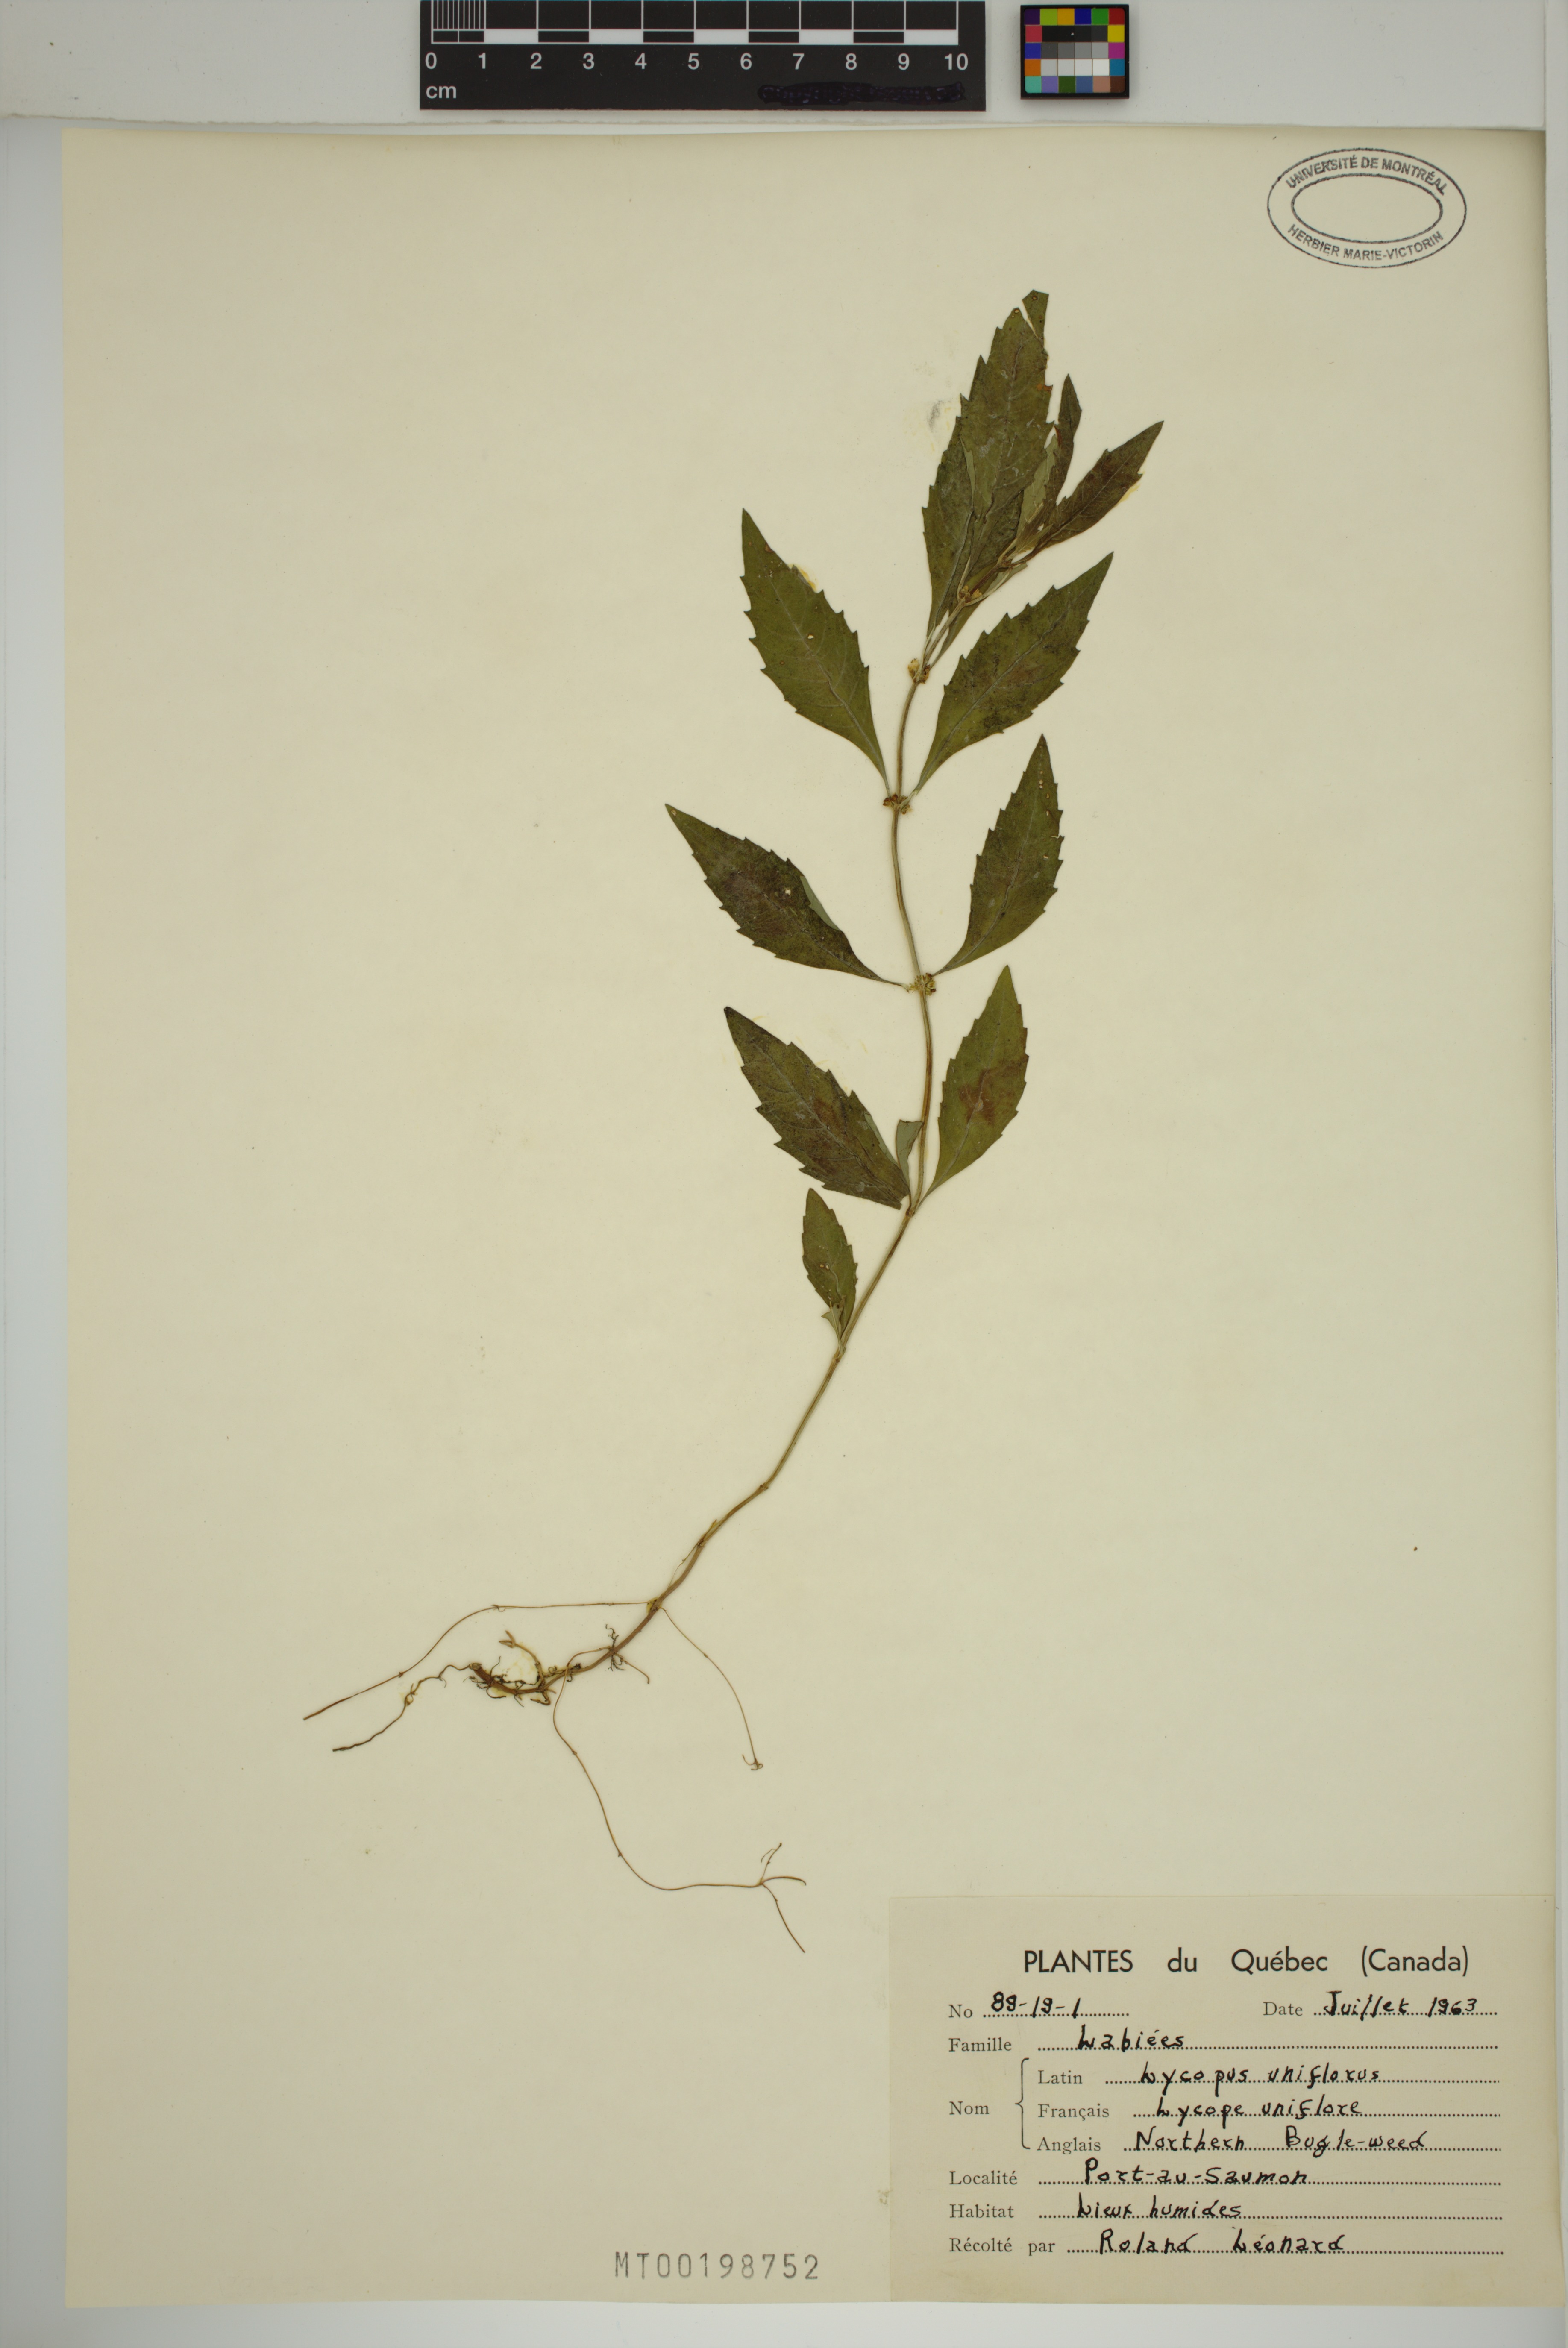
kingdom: Plantae
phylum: Tracheophyta
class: Magnoliopsida
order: Lamiales
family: Lamiaceae
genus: Lycopus
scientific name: Lycopus uniflorus
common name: Northern bugleweed
